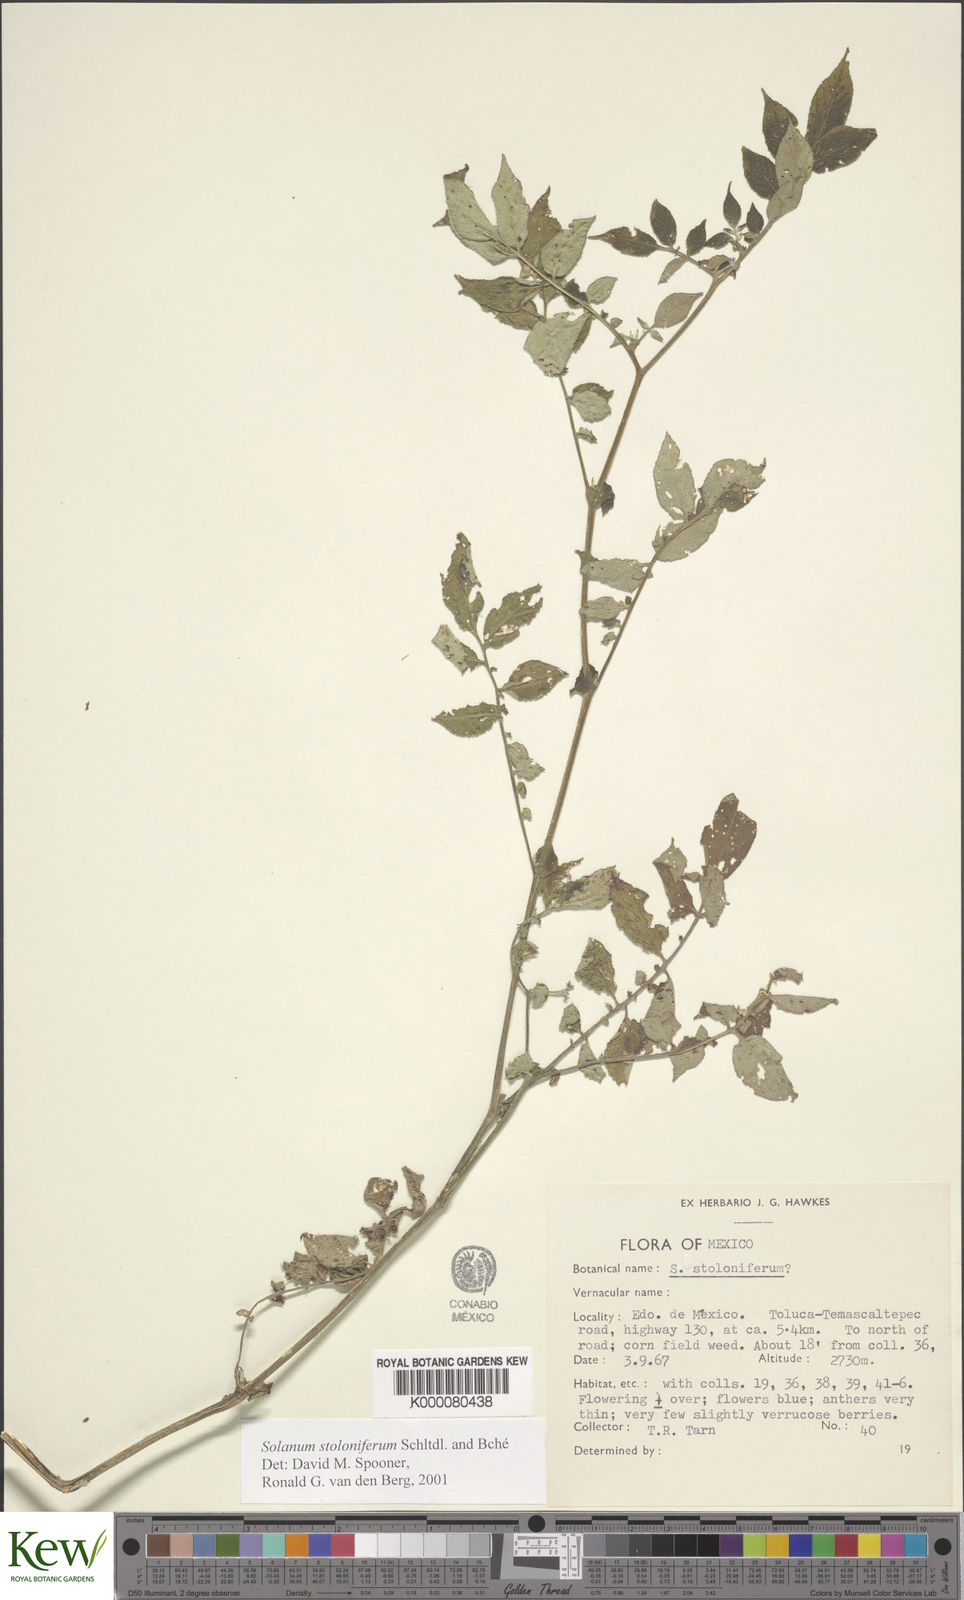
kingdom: Plantae
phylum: Tracheophyta
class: Magnoliopsida
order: Solanales
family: Solanaceae
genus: Solanum
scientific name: Solanum stoloniferum
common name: Fendler's nighshade
